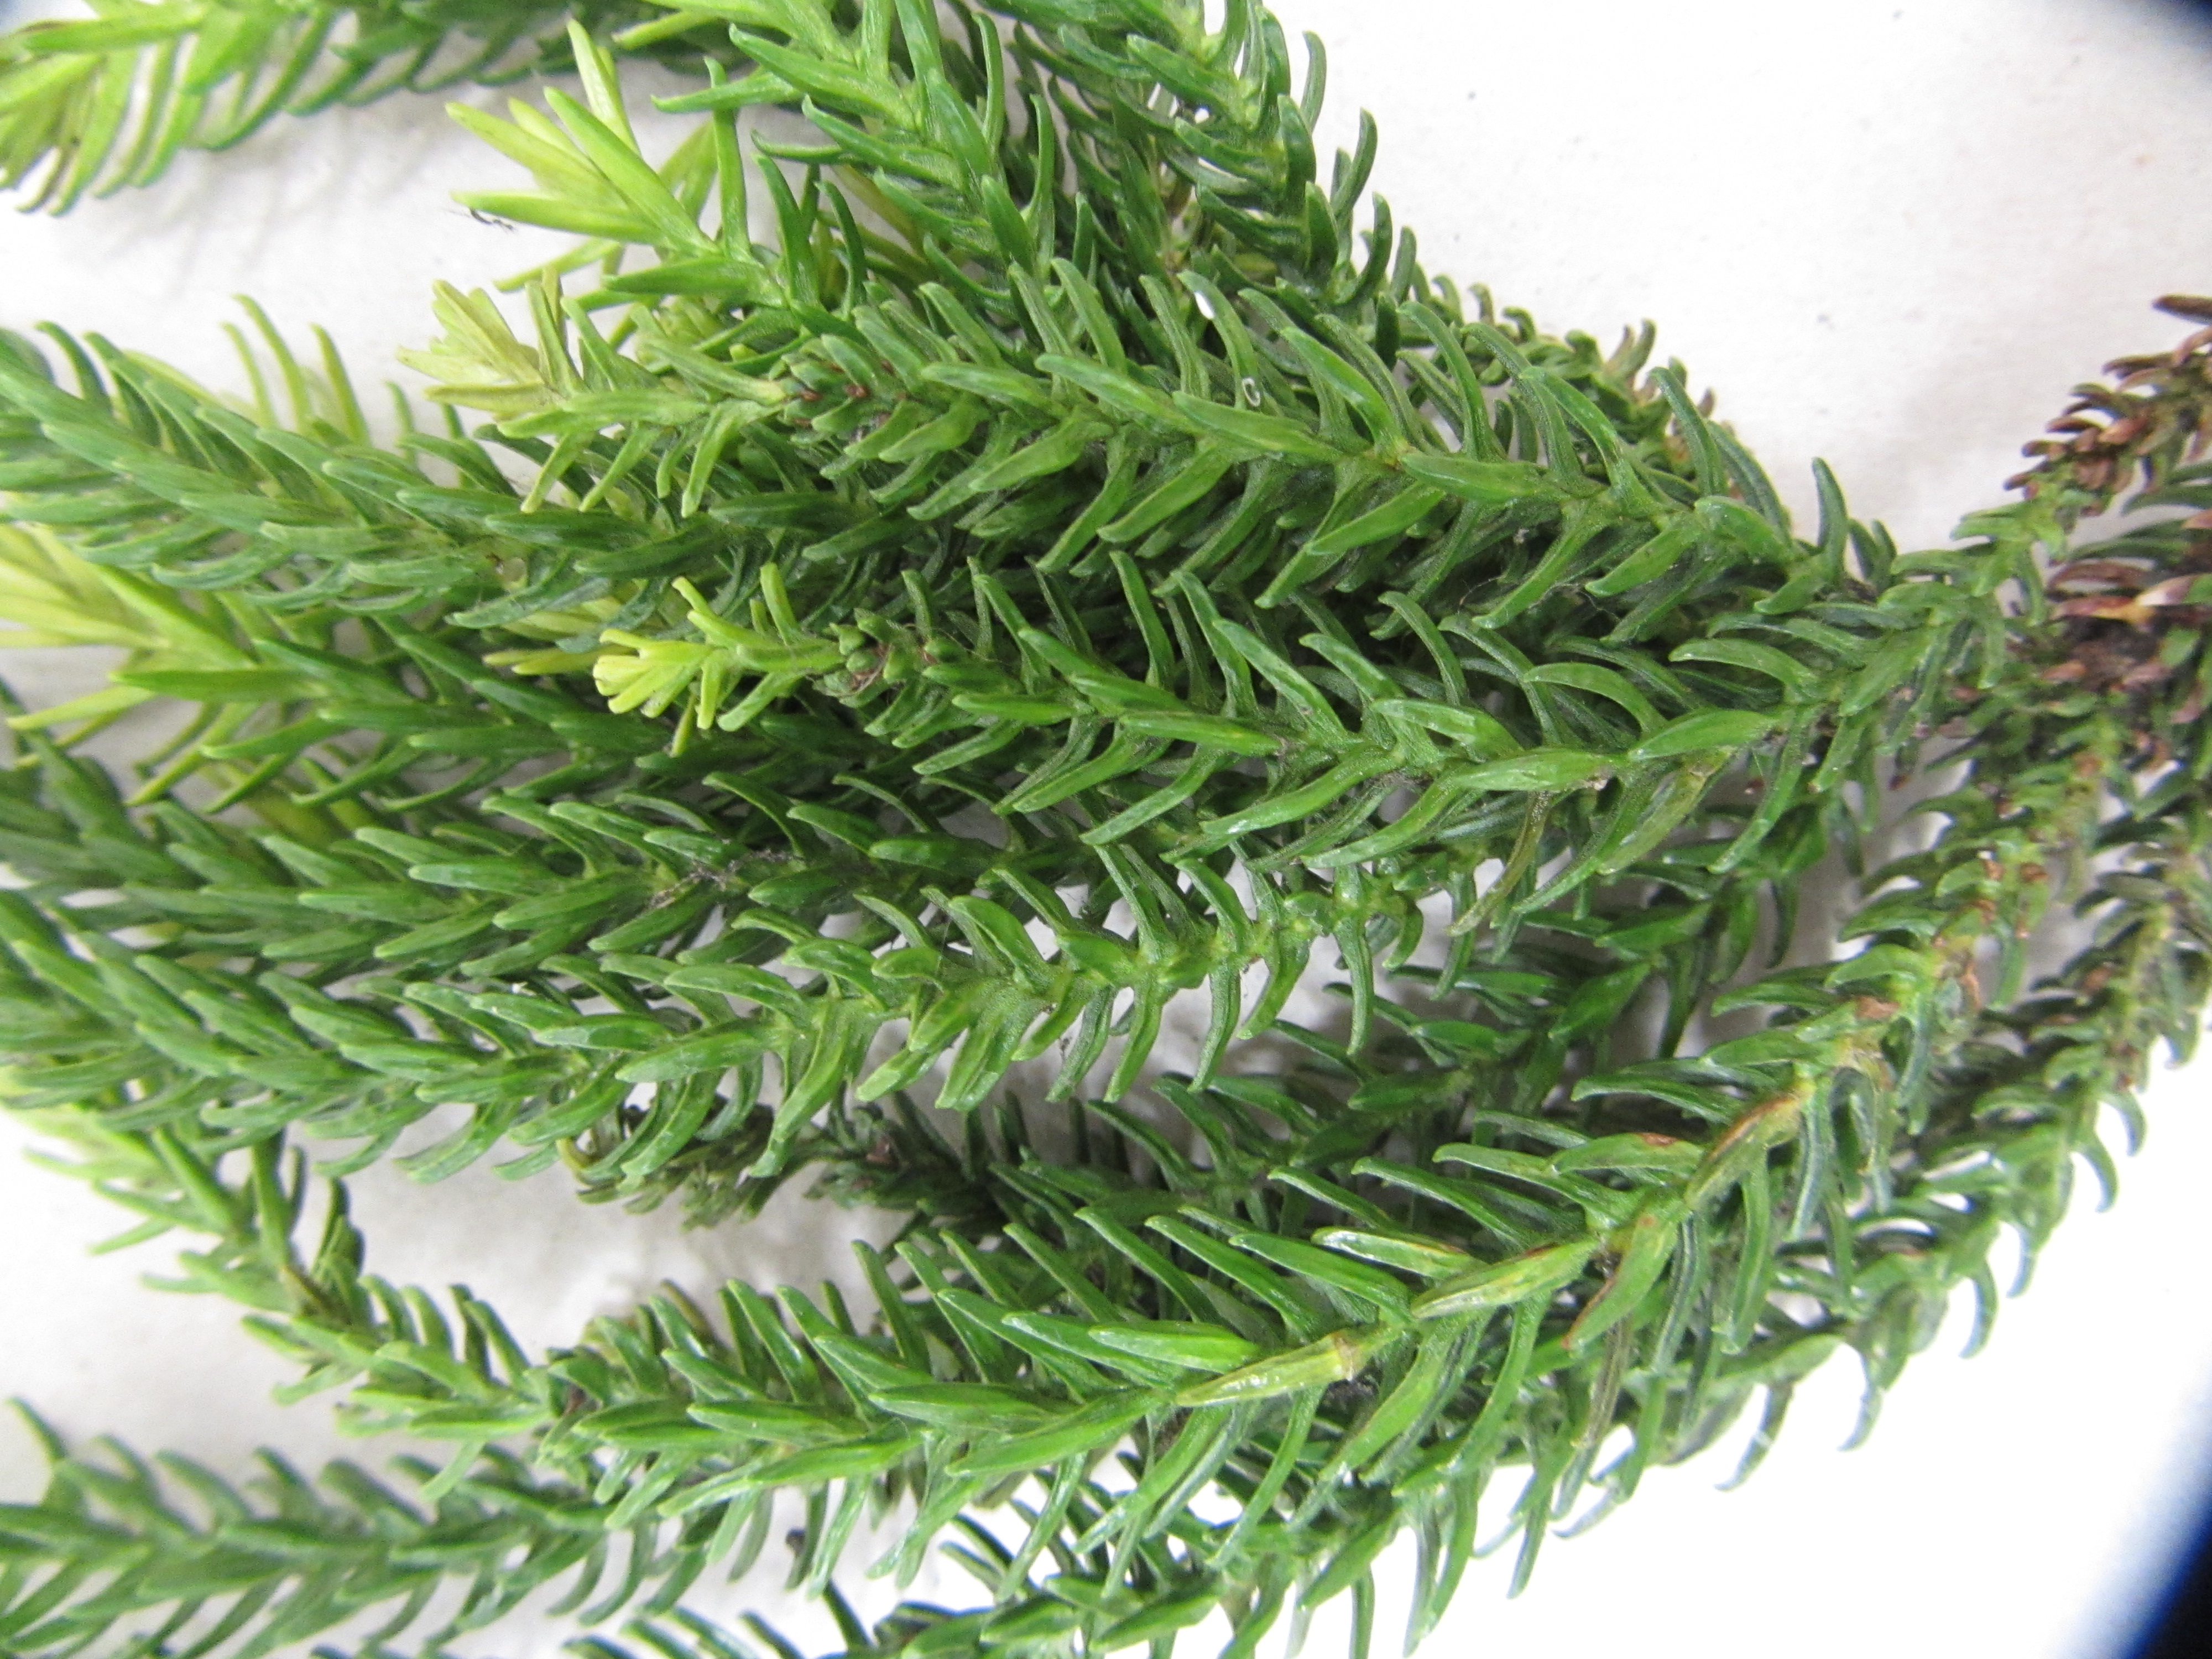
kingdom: Plantae
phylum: Tracheophyta
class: Pinopsida
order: Pinales
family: Araucariaceae
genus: Araucaria
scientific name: Araucaria biramulata
